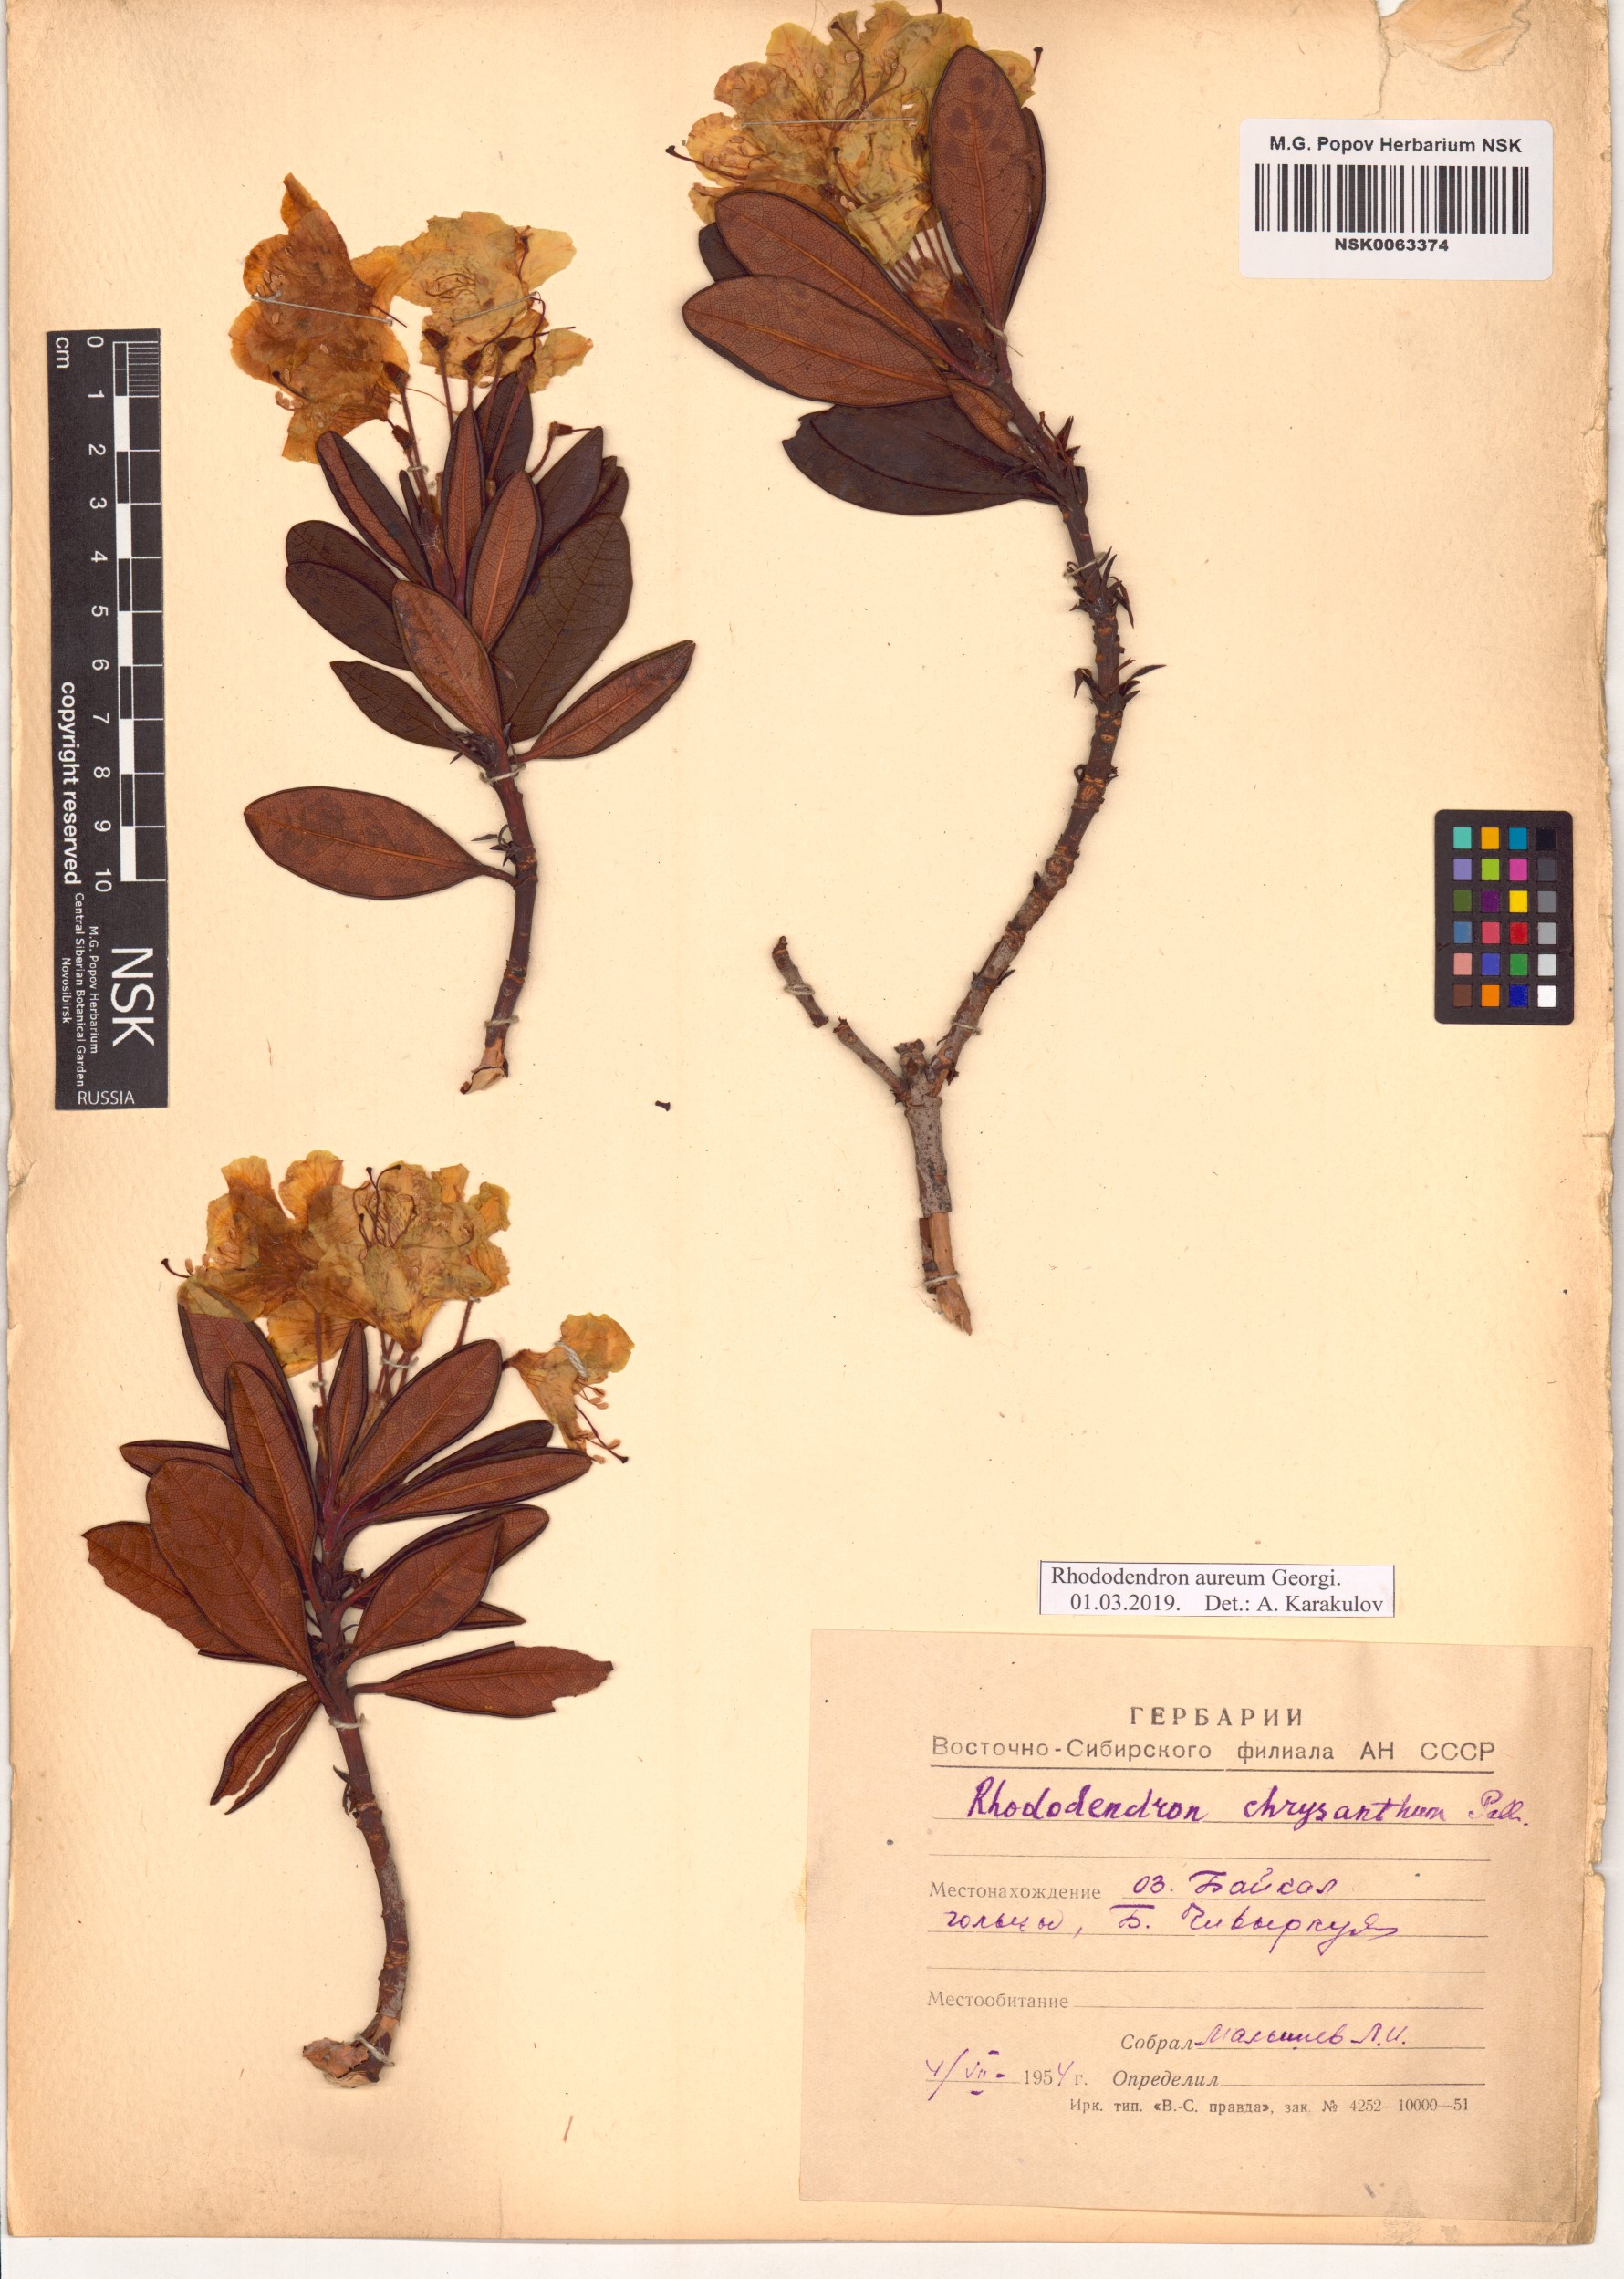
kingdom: Plantae
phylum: Tracheophyta
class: Magnoliopsida
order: Ericales
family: Ericaceae
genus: Rhododendron
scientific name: Rhododendron aureum
